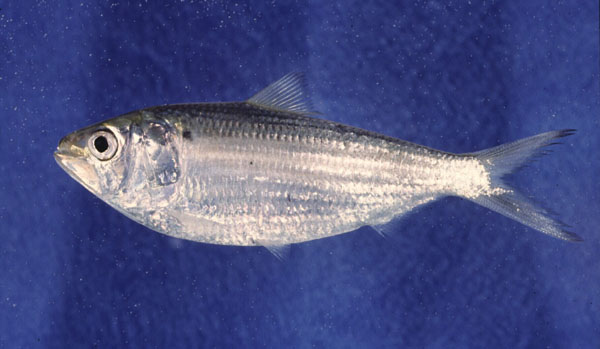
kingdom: Animalia
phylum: Chordata
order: Clupeiformes
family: Clupeidae
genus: Hilsa
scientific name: Hilsa kelee
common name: Kelee shad
